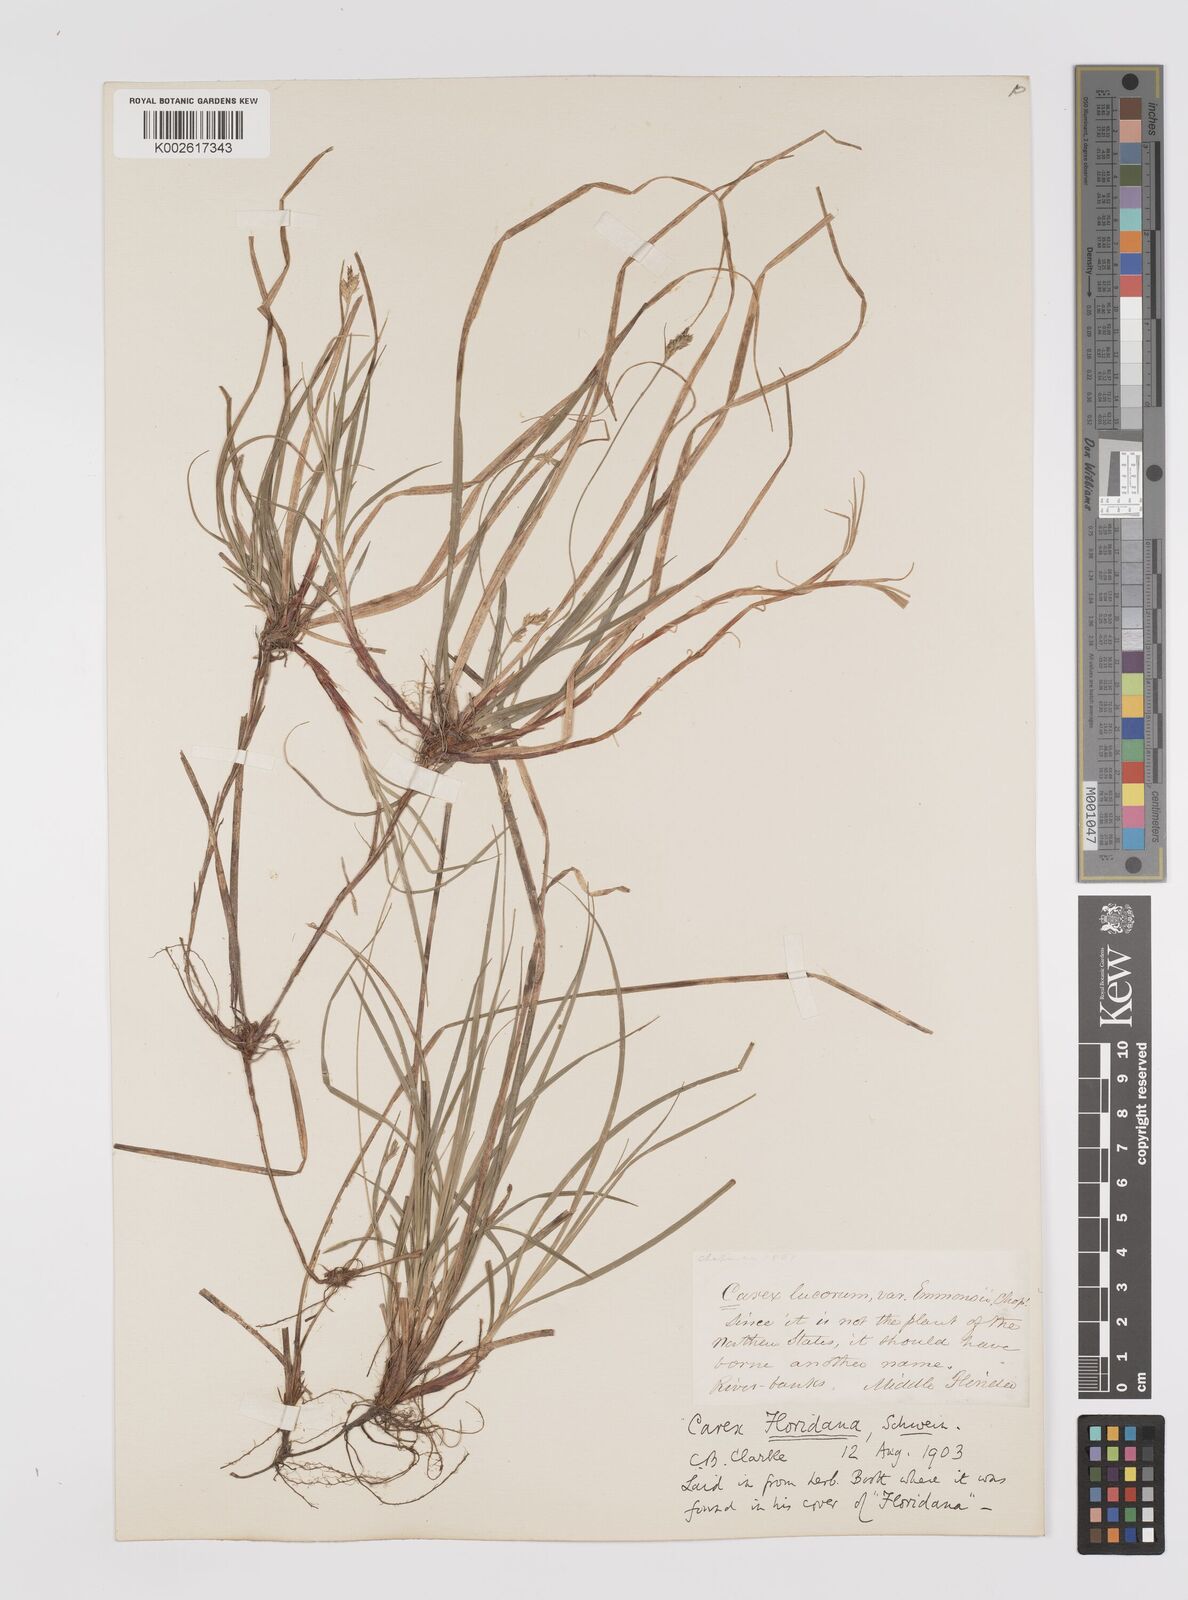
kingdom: Plantae
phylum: Tracheophyta
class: Liliopsida
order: Poales
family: Cyperaceae
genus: Carex
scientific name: Carex floridana
